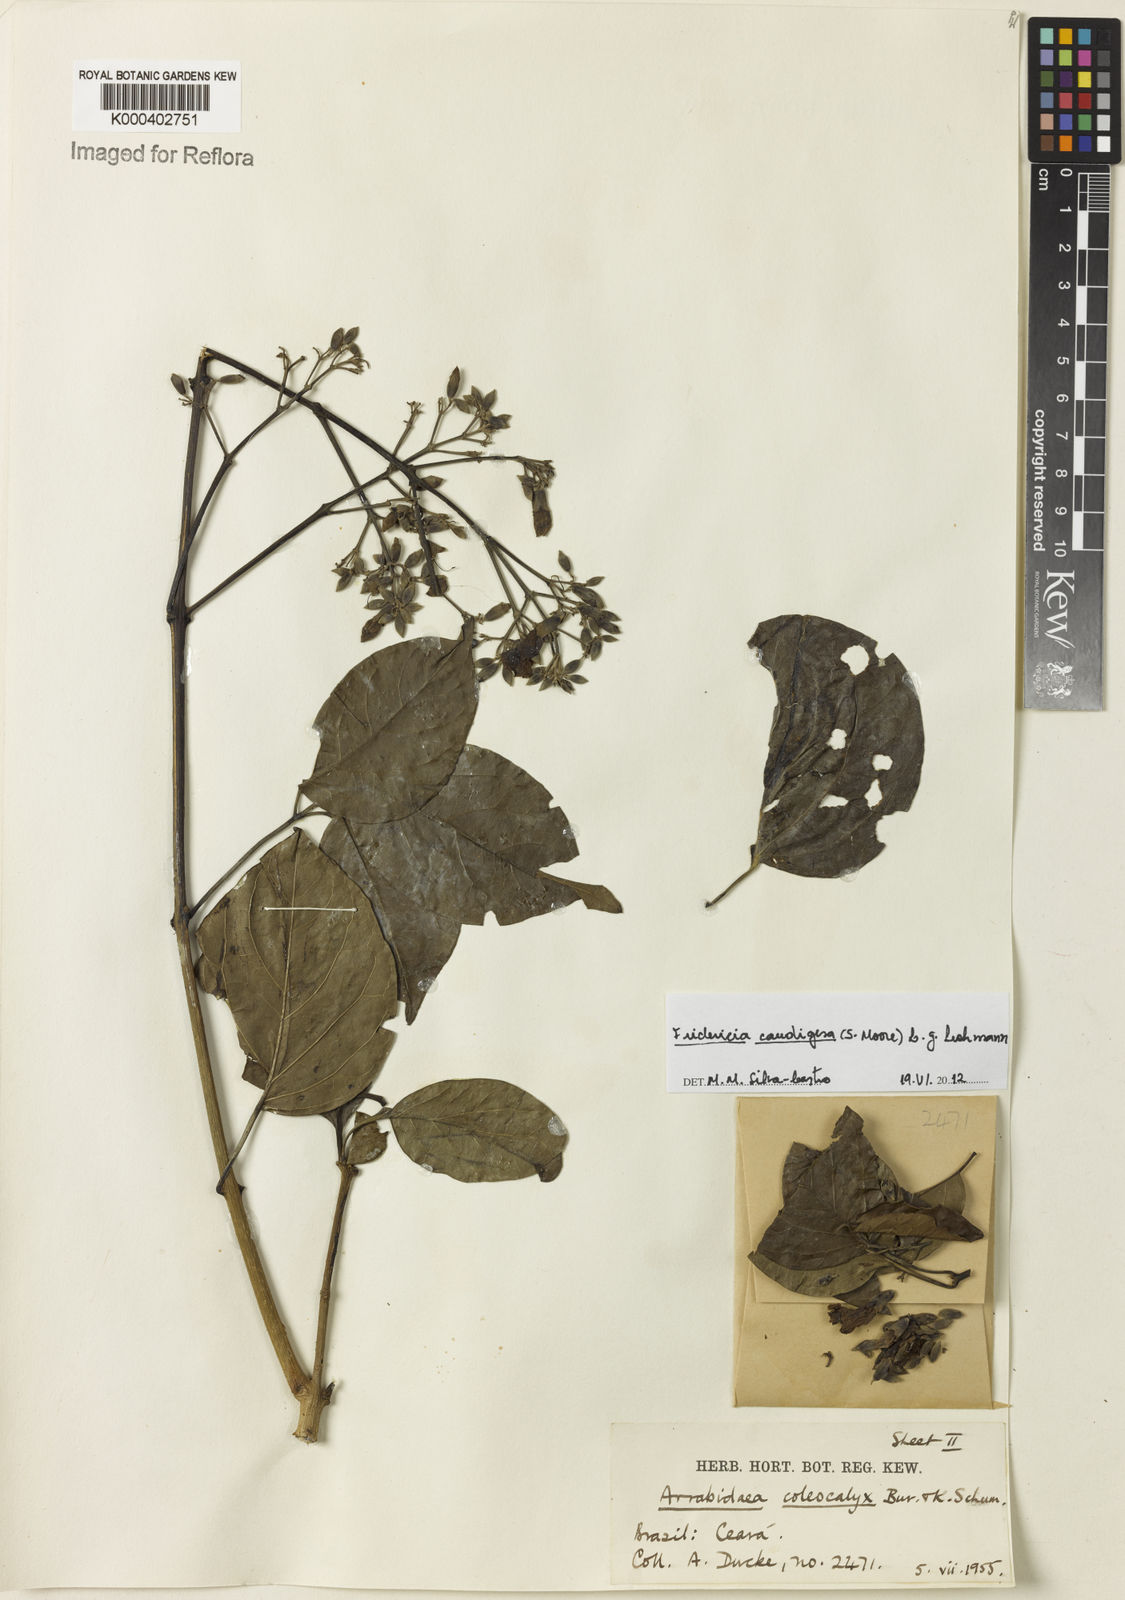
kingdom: Plantae
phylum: Tracheophyta
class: Magnoliopsida
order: Lamiales
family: Bignoniaceae
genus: Fridericia
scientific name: Fridericia caudigera
